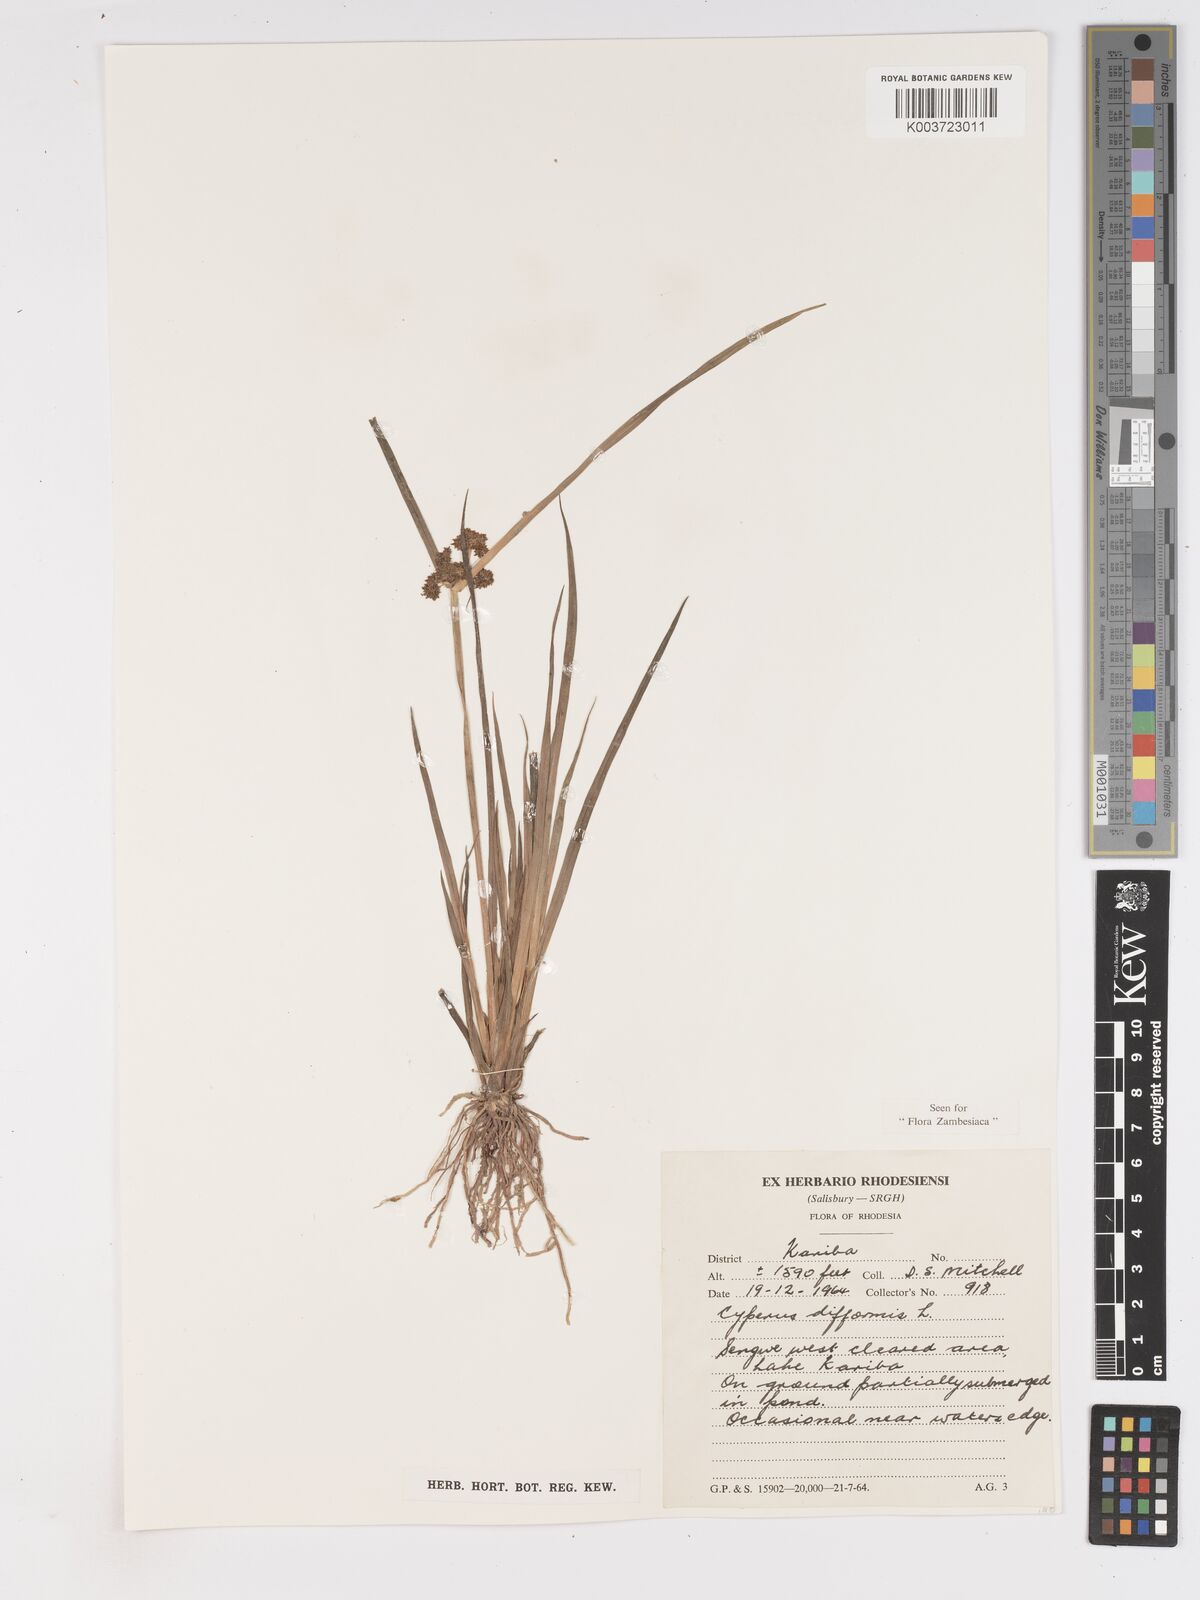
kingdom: Plantae
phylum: Tracheophyta
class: Liliopsida
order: Poales
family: Cyperaceae
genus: Cyperus
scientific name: Cyperus difformis
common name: Variable flatsedge
